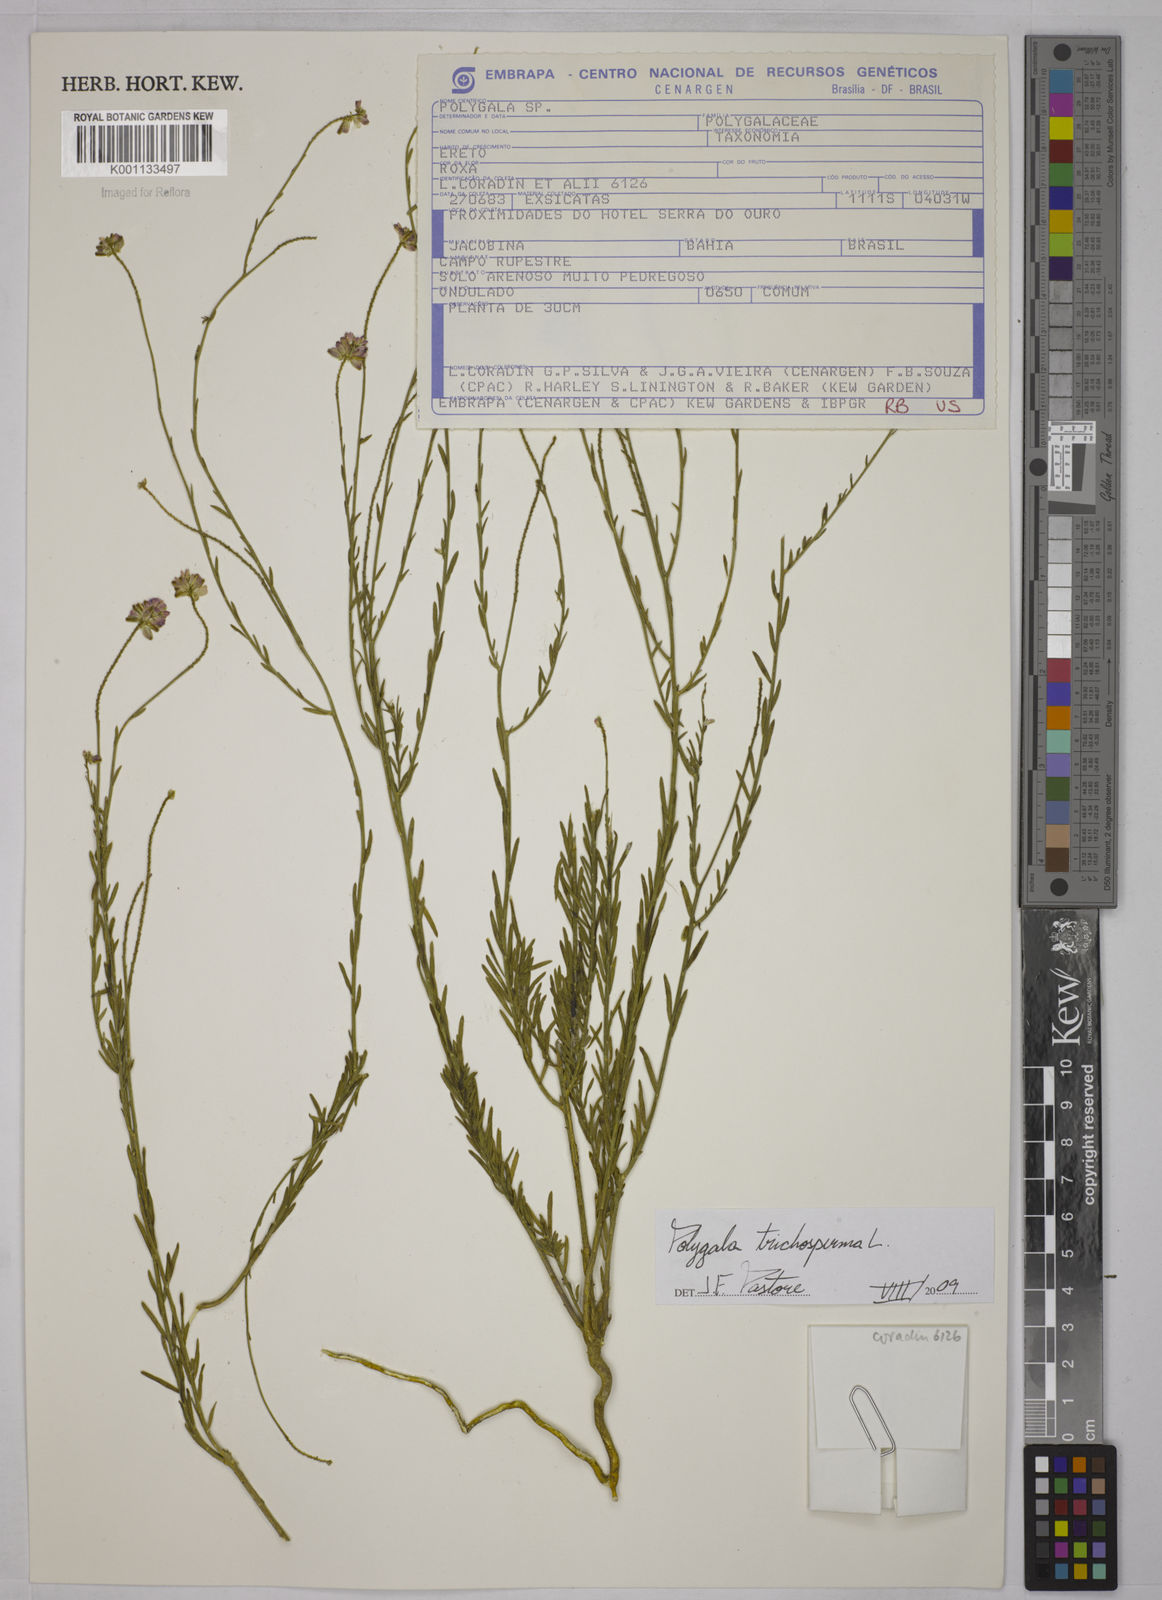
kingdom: Plantae
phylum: Tracheophyta
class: Magnoliopsida
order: Fabales
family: Polygalaceae
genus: Polygala
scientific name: Polygala trichosperma
